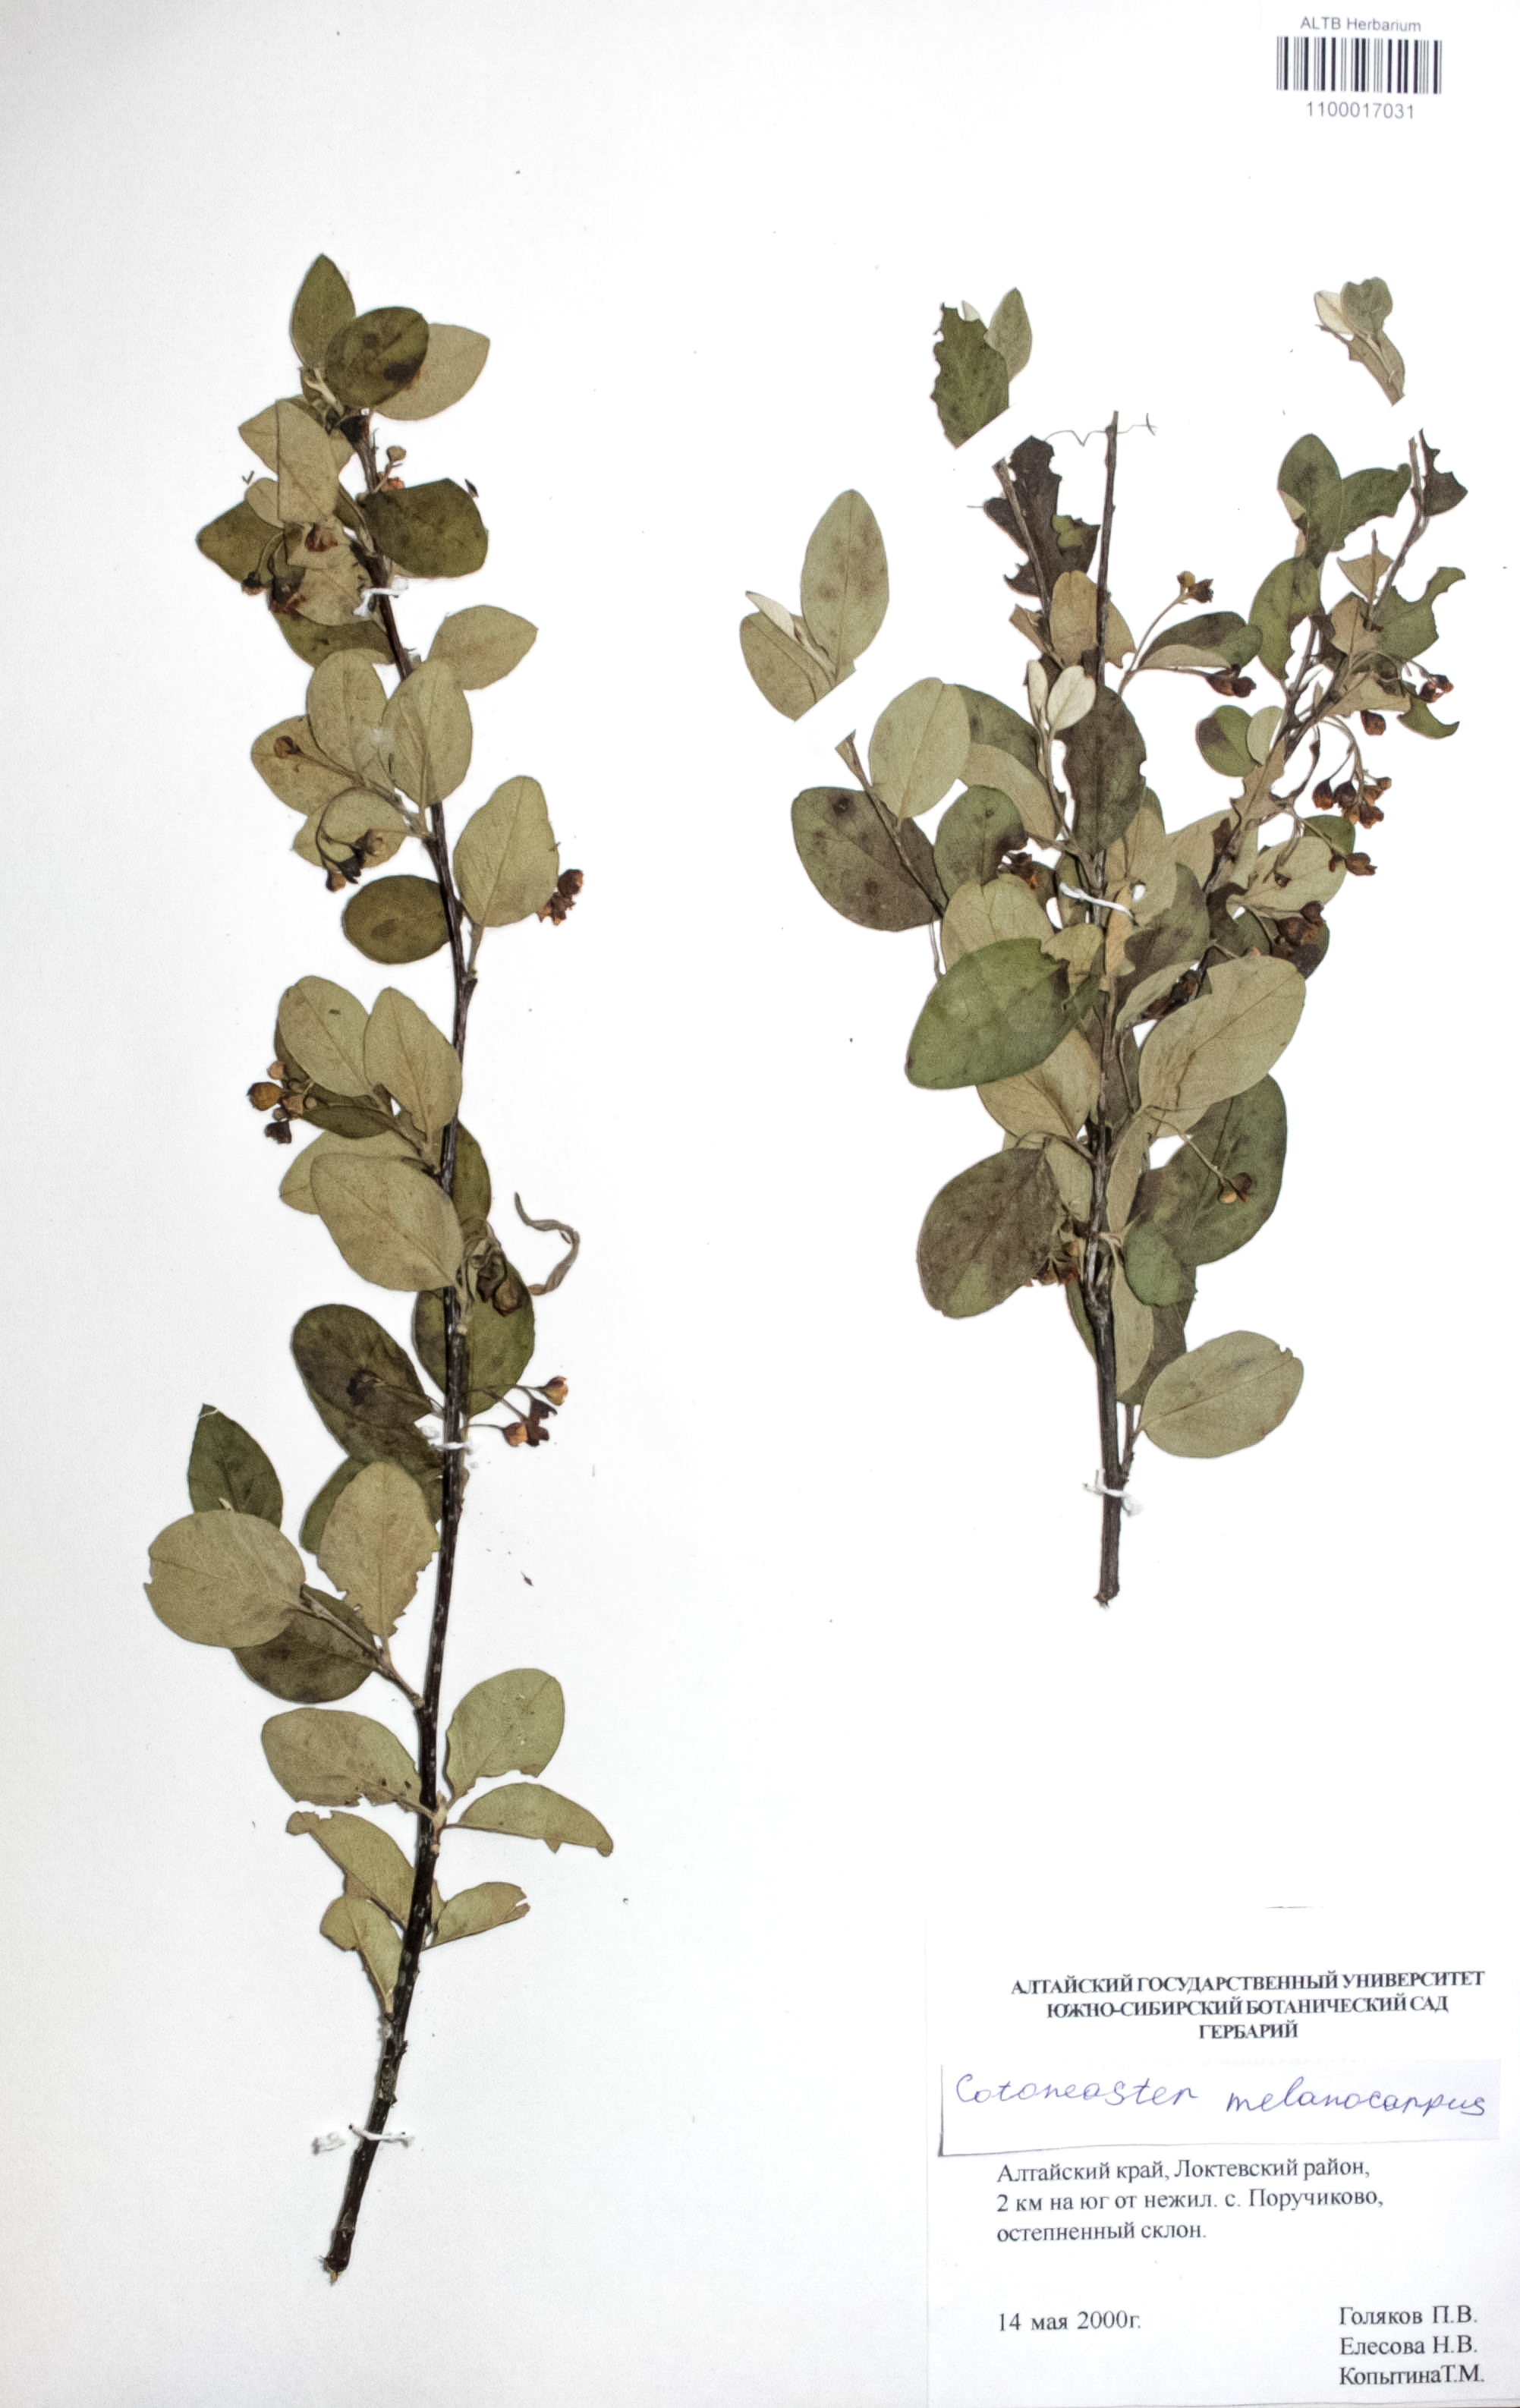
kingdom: Plantae
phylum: Tracheophyta
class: Magnoliopsida
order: Rosales
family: Rosaceae
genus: Cotoneaster
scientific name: Cotoneaster niger
